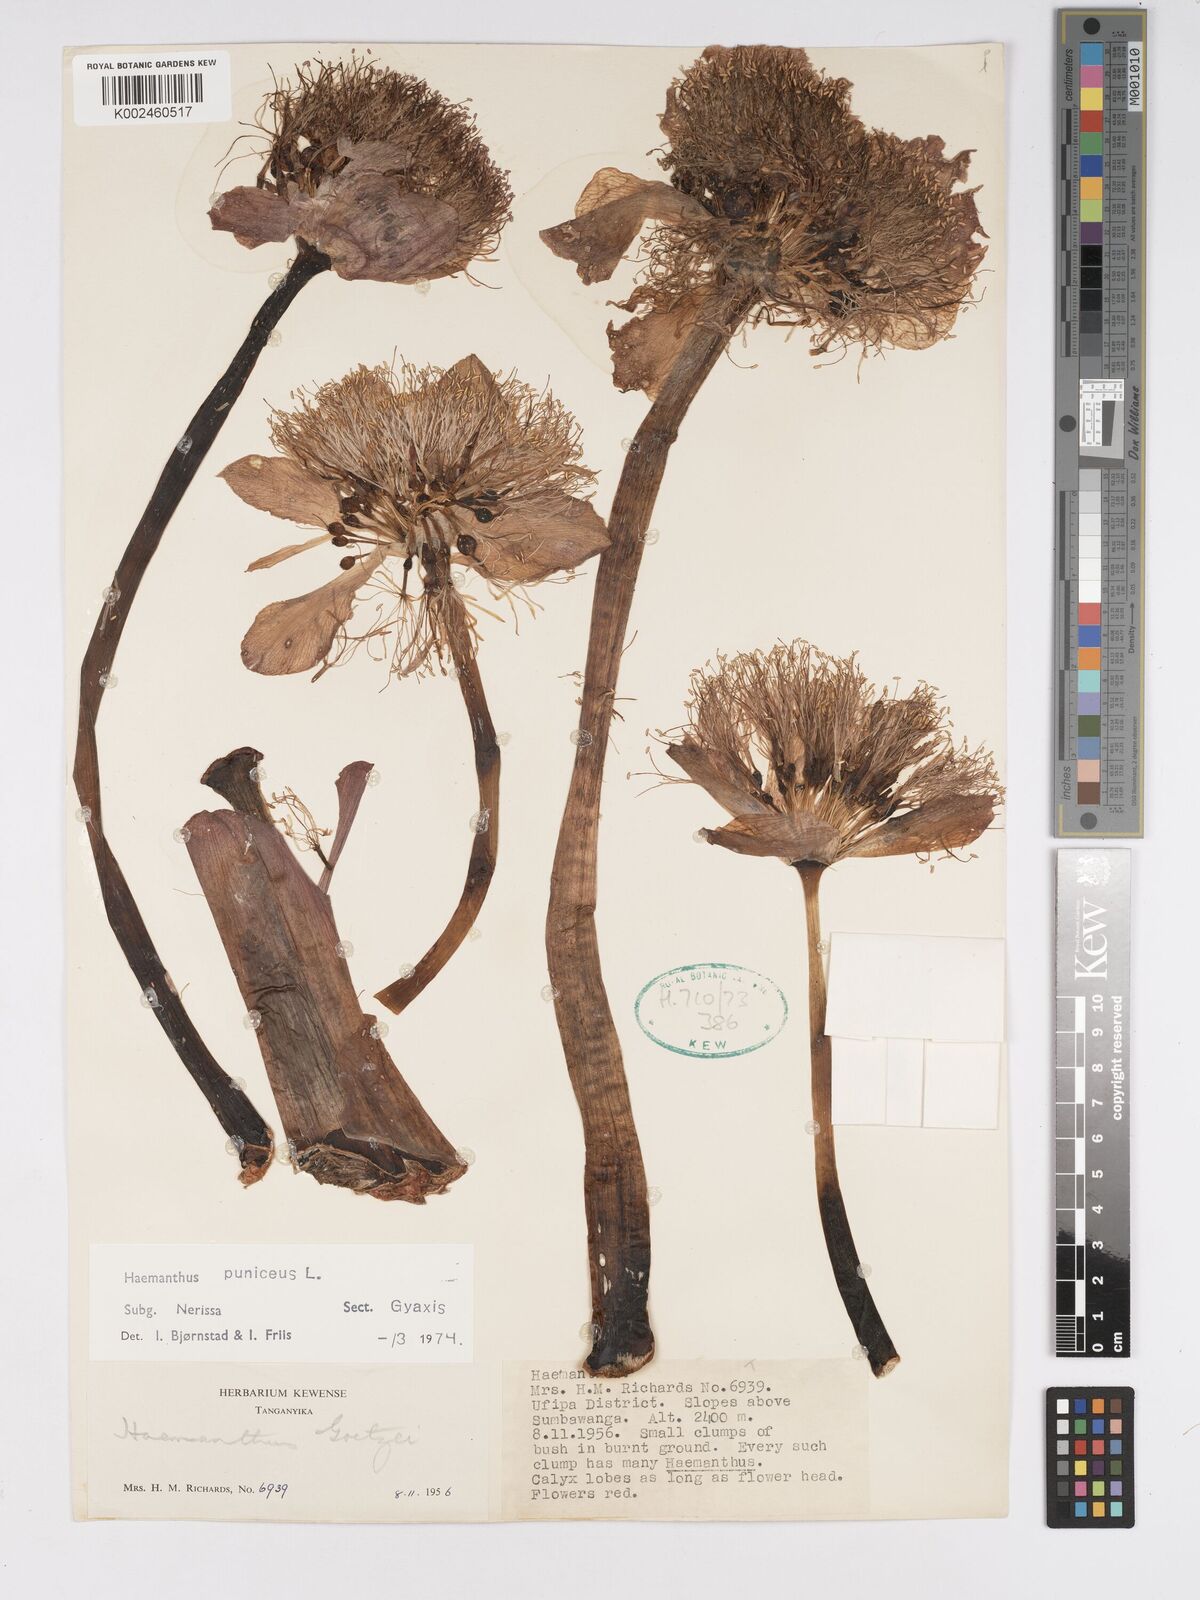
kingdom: Plantae
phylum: Tracheophyta
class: Liliopsida
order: Asparagales
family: Amaryllidaceae
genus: Scadoxus
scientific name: Scadoxus puniceus
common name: Royal-paintbrush
